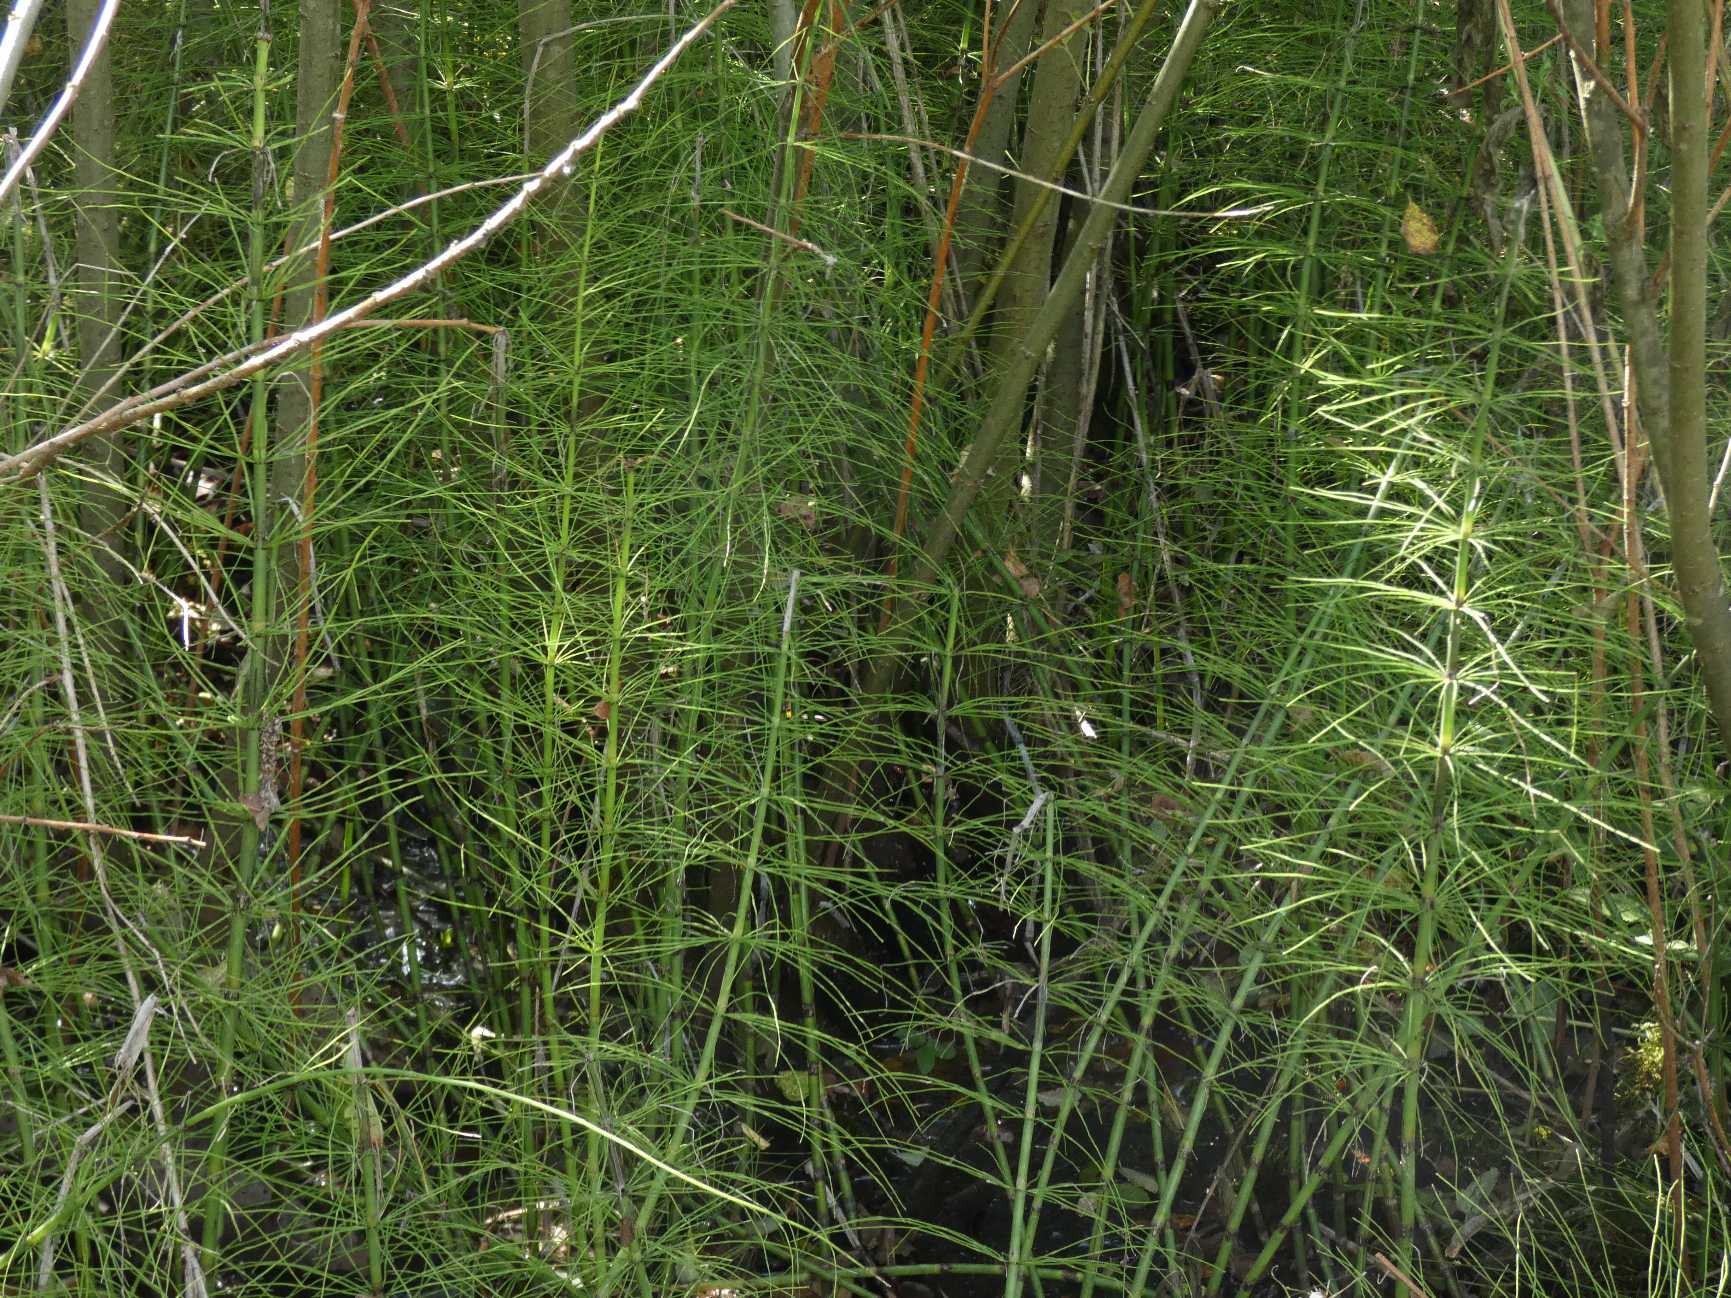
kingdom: Plantae
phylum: Tracheophyta
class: Polypodiopsida
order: Equisetales
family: Equisetaceae
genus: Equisetum
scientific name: Equisetum fluviatile
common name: Dynd-padderok
